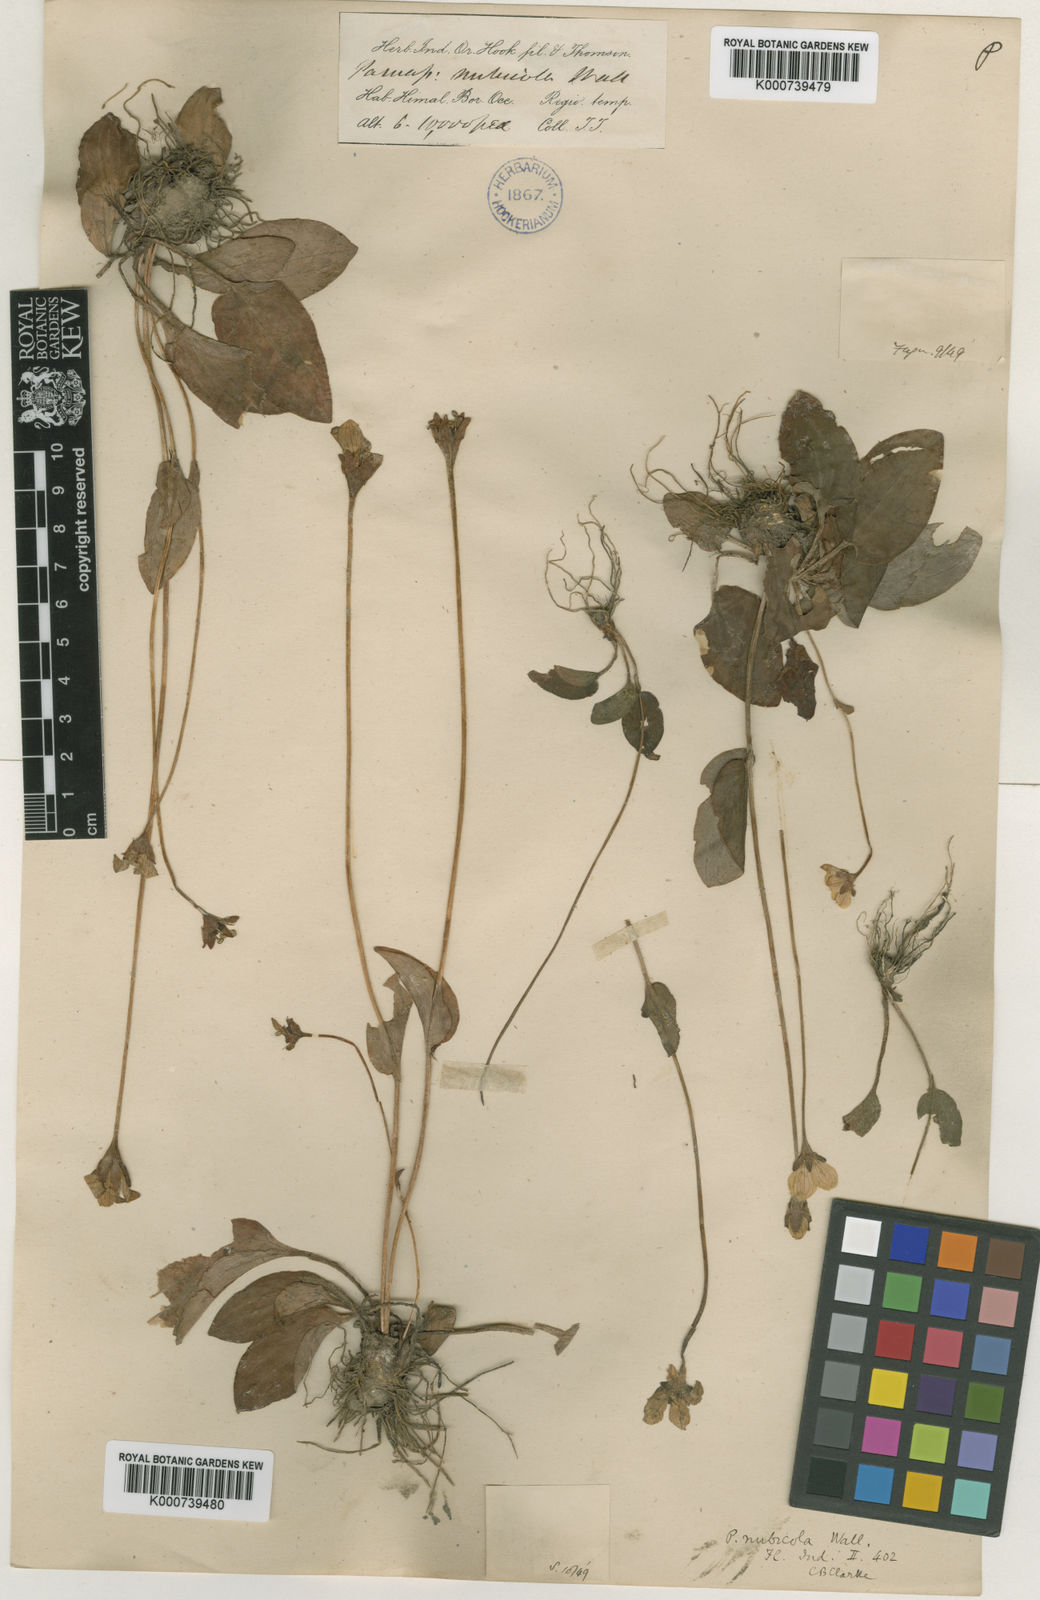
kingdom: Plantae
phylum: Tracheophyta
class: Magnoliopsida
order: Celastrales
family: Parnassiaceae
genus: Parnassia
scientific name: Parnassia
